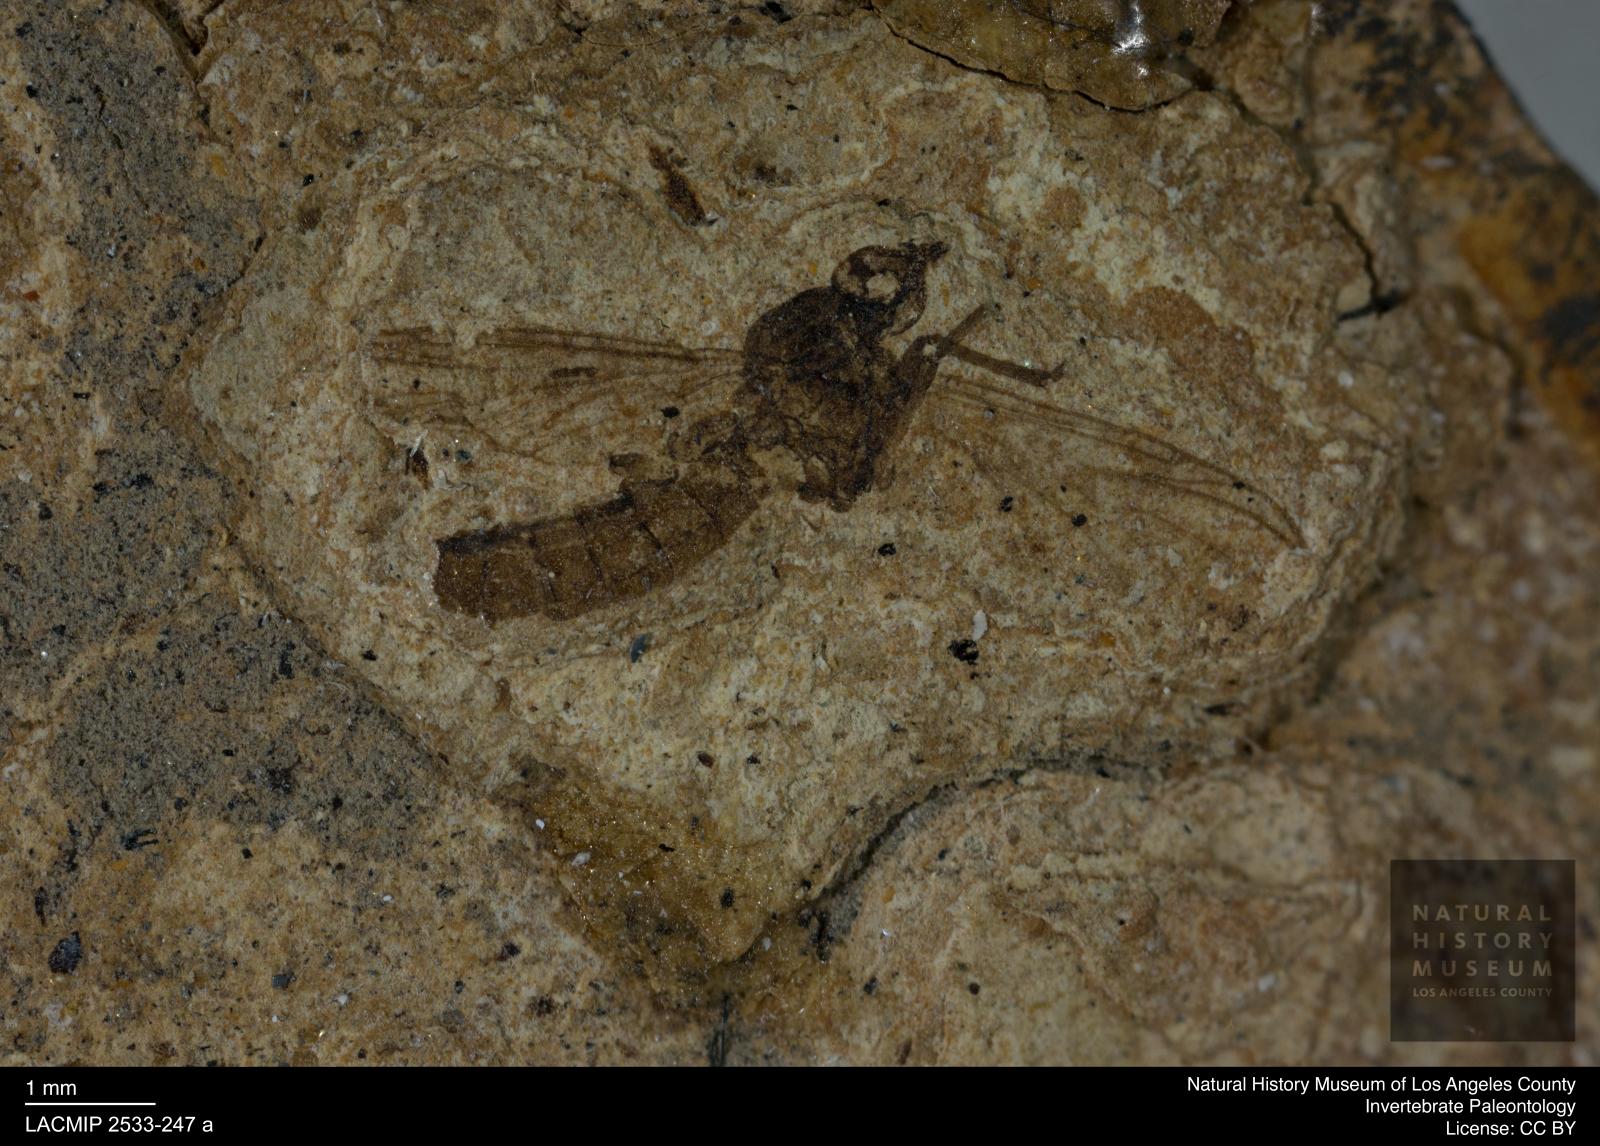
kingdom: Animalia
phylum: Arthropoda
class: Insecta
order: Diptera
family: Bibionidae
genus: Penthetria
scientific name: Penthetria
